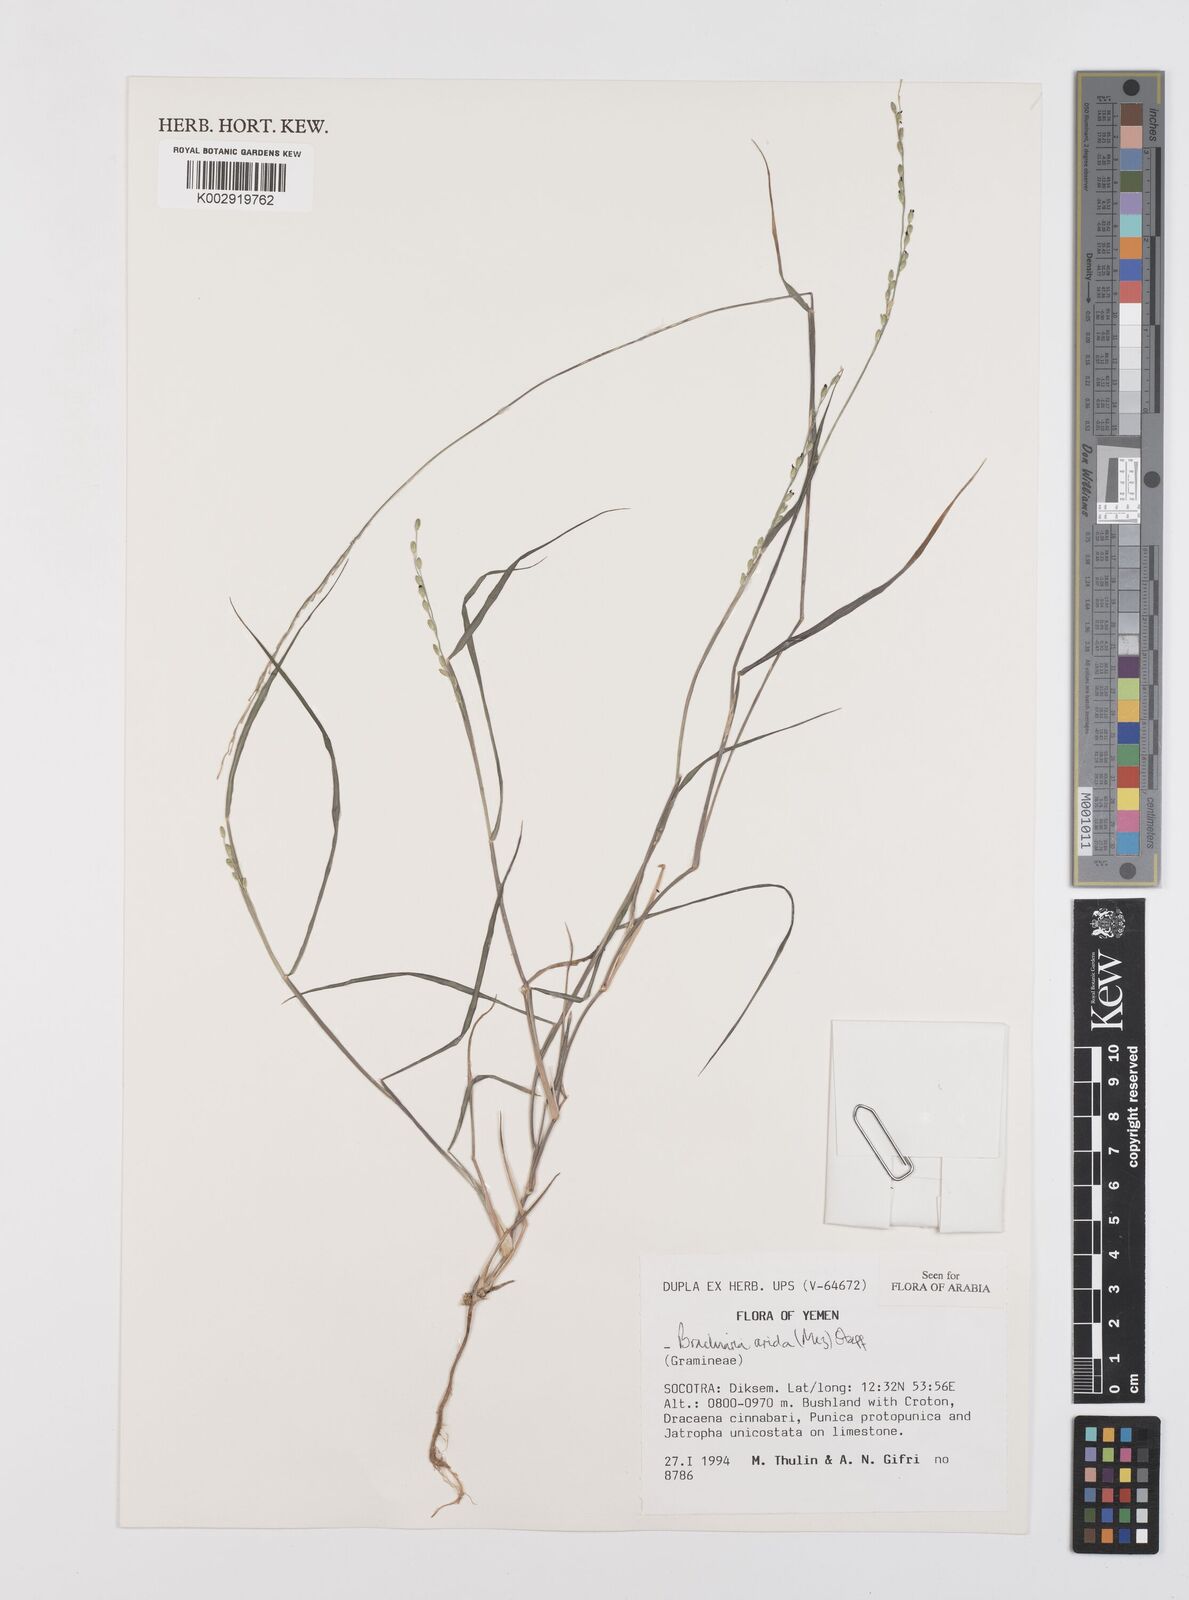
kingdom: Plantae
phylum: Tracheophyta
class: Liliopsida
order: Poales
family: Poaceae
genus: Urochloa
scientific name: Urochloa arida
